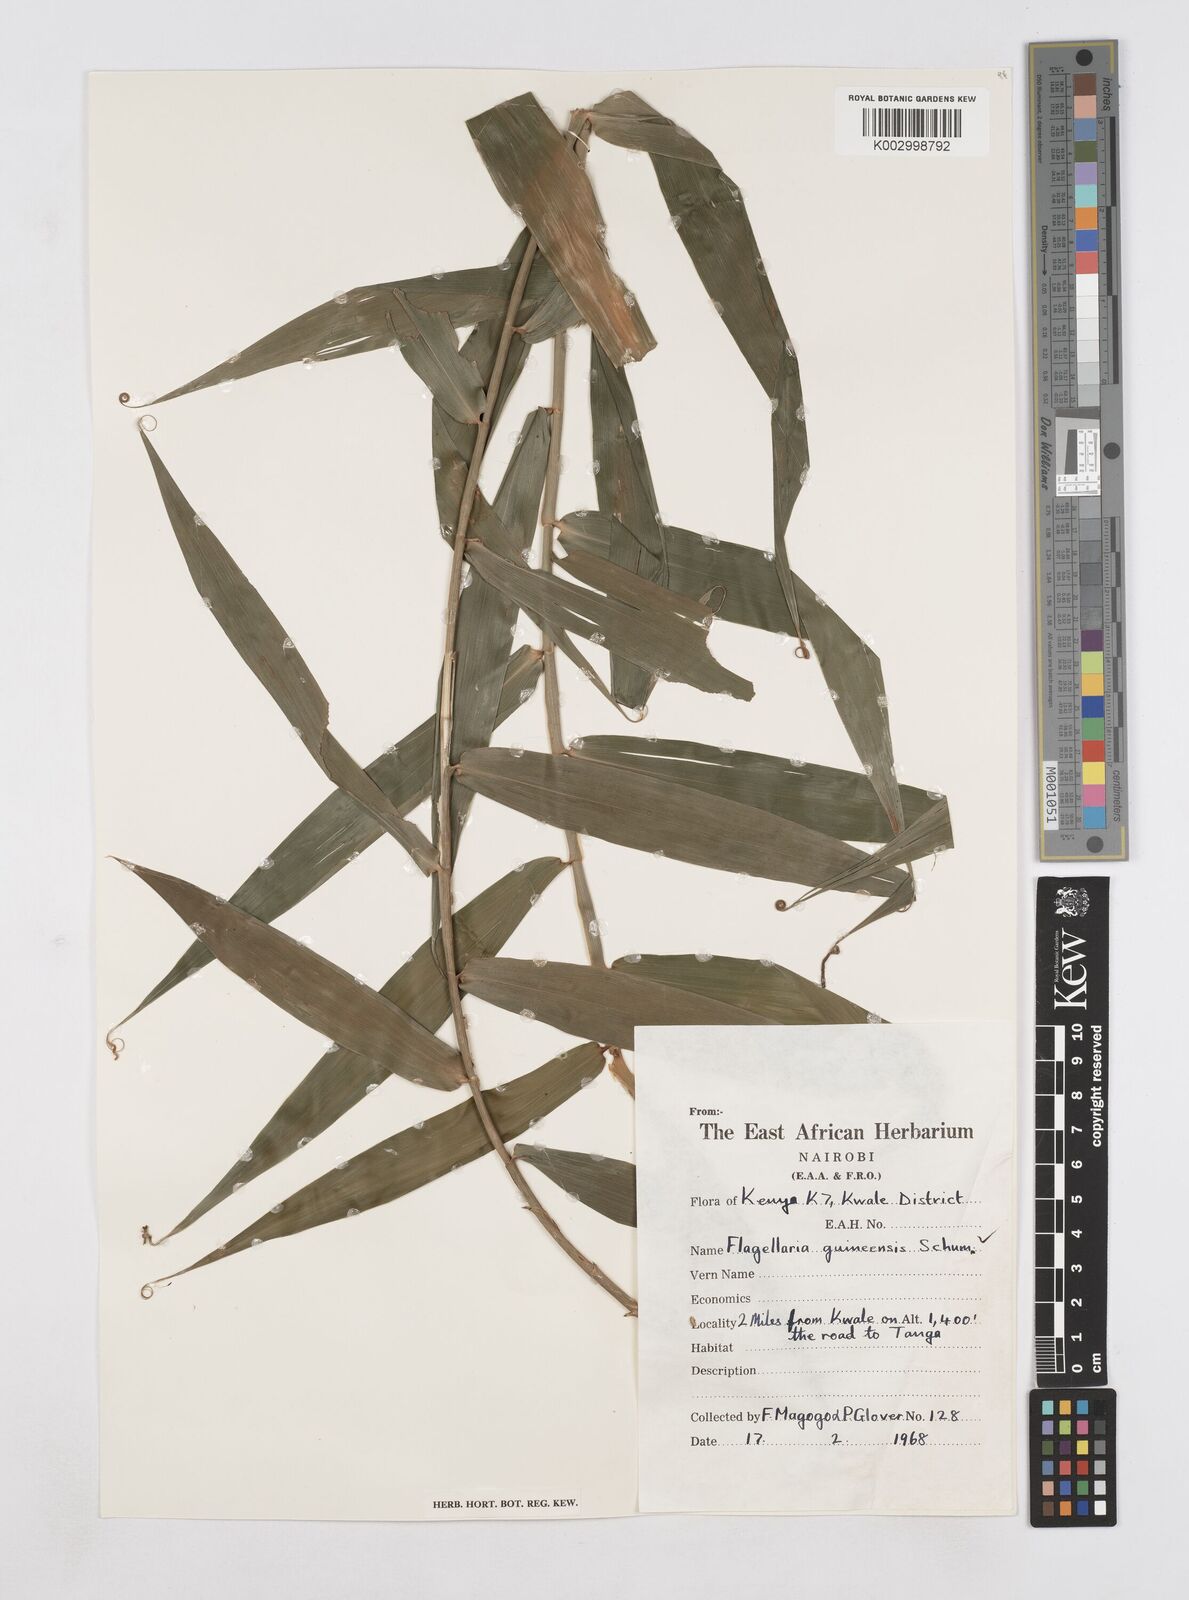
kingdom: Plantae
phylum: Tracheophyta
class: Liliopsida
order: Poales
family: Flagellariaceae
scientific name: Flagellariaceae
